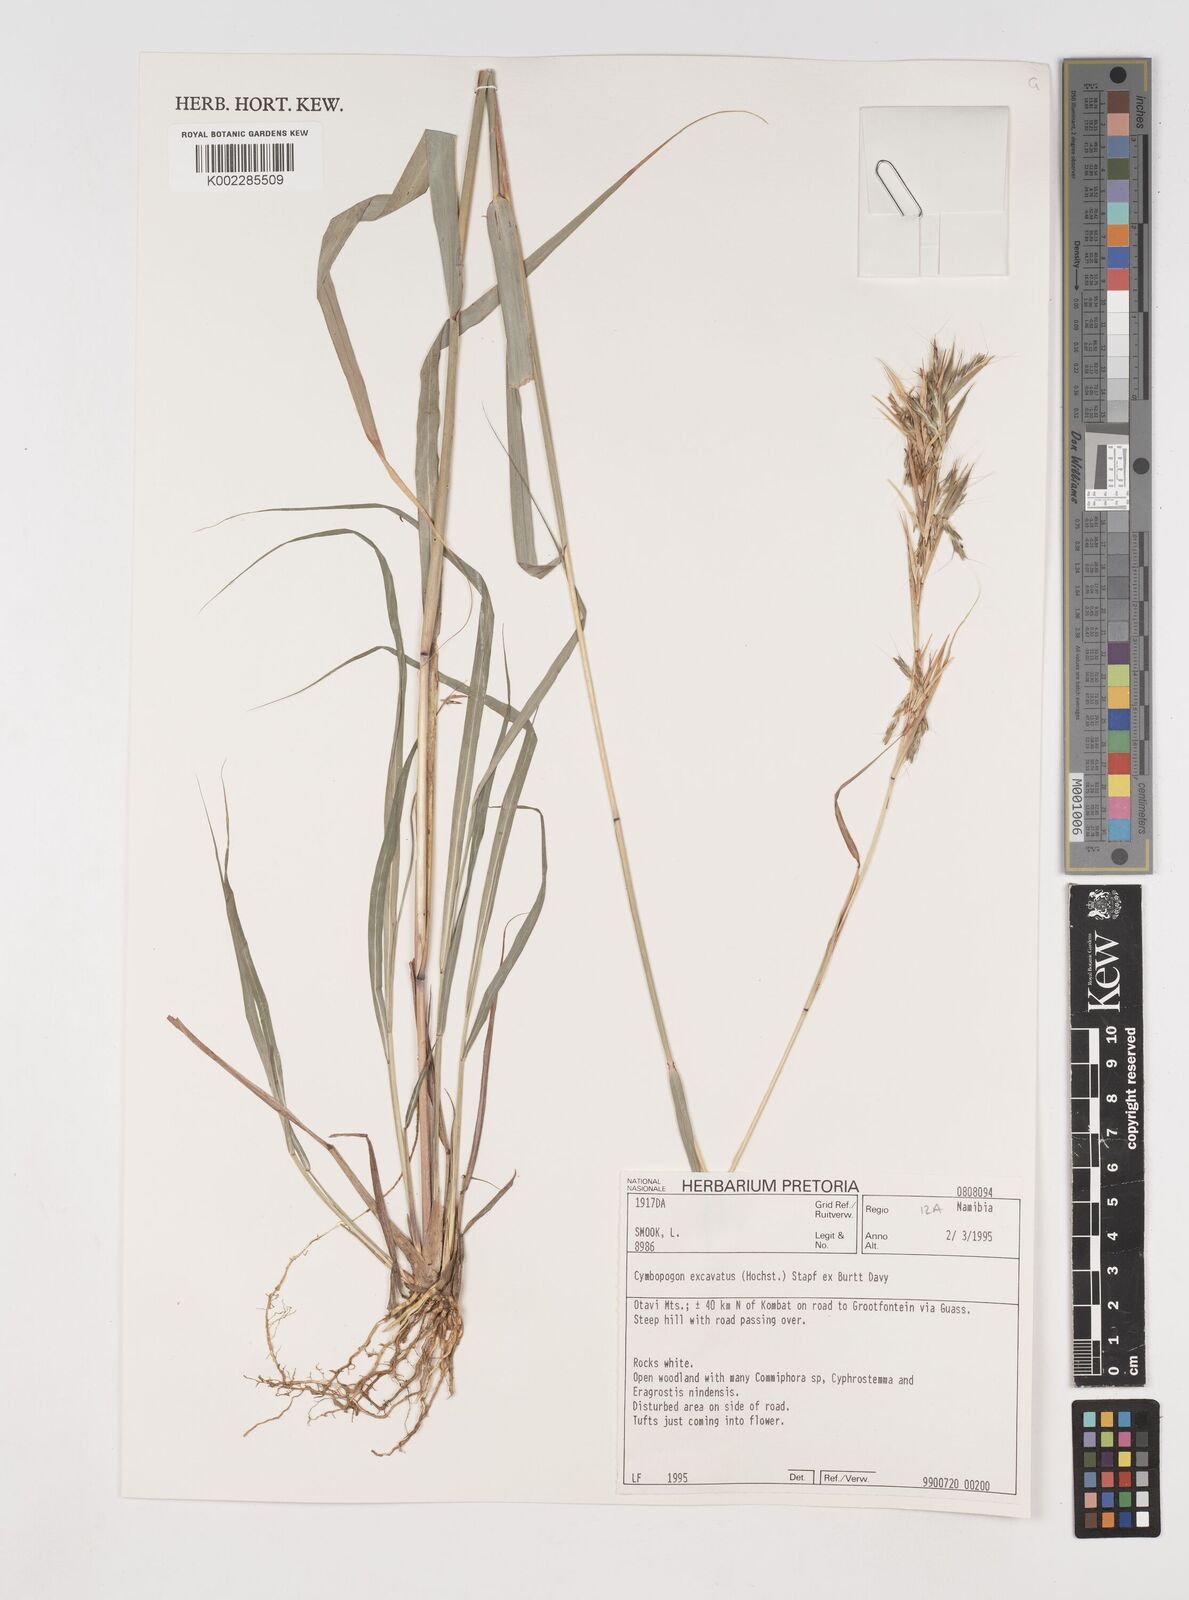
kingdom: Plantae
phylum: Tracheophyta
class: Liliopsida
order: Poales
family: Poaceae
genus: Cymbopogon
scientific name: Cymbopogon caesius
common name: Kachi grass
